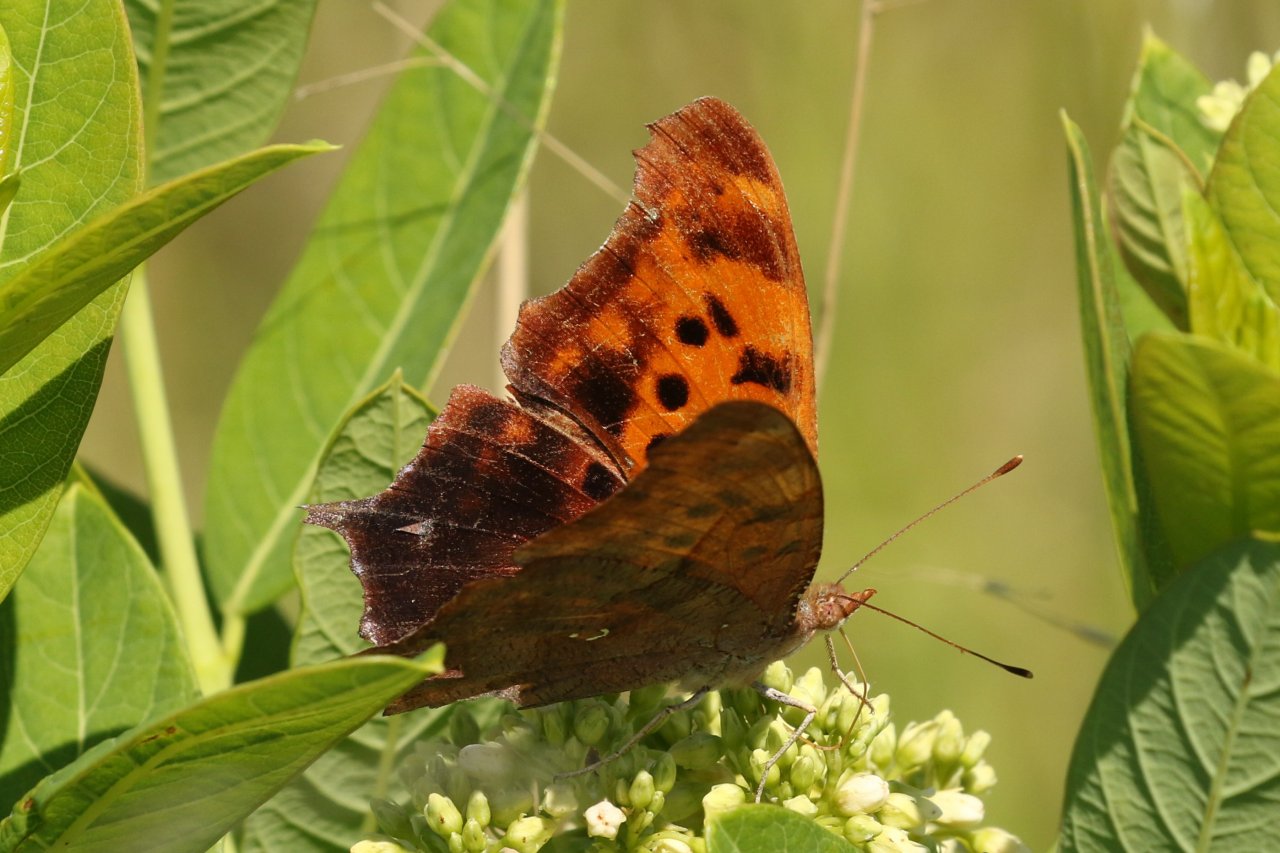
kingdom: Animalia
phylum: Arthropoda
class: Insecta
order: Lepidoptera
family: Nymphalidae
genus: Polygonia
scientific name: Polygonia interrogationis
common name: Question Mark
